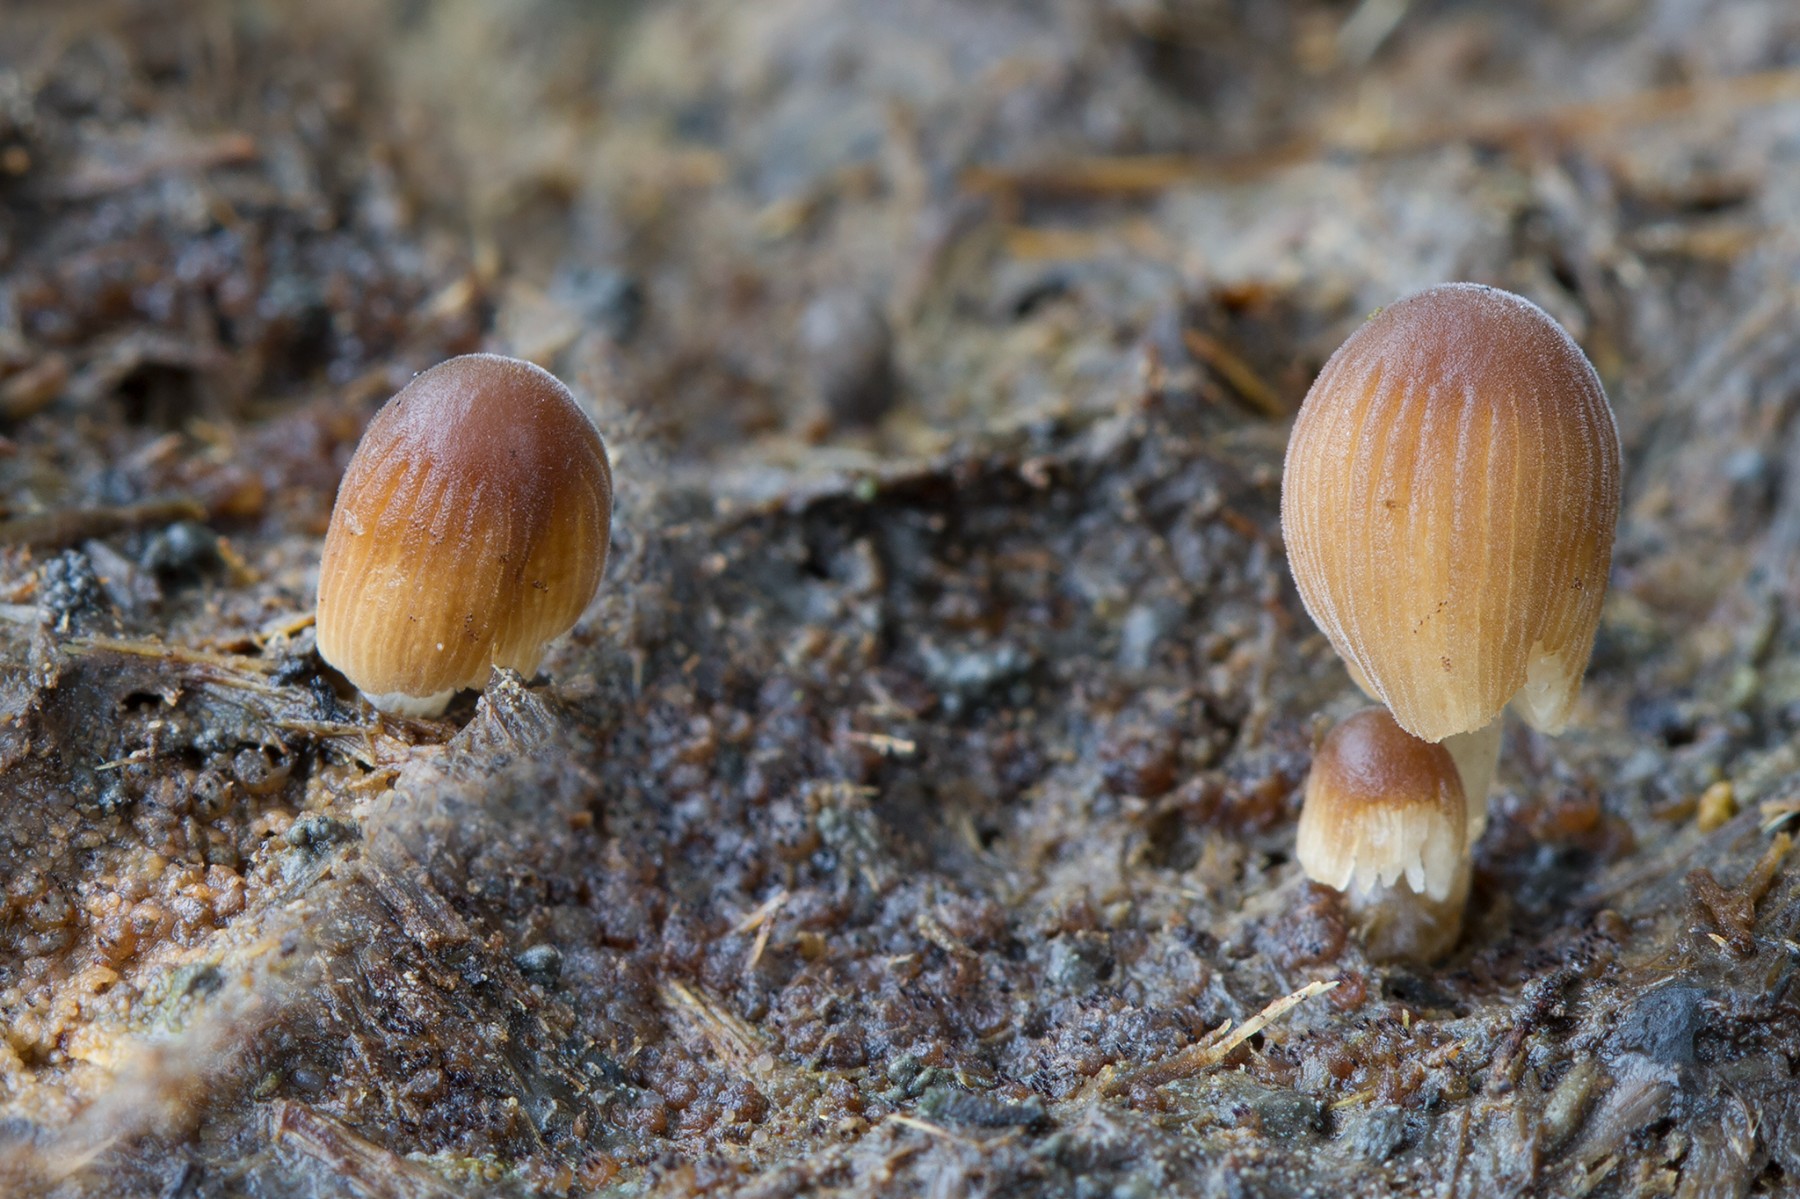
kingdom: Fungi
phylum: Basidiomycota
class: Agaricomycetes
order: Agaricales
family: Psathyrellaceae
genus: Tulosesus
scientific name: Tulosesus pellucidus
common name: skær blækhat
